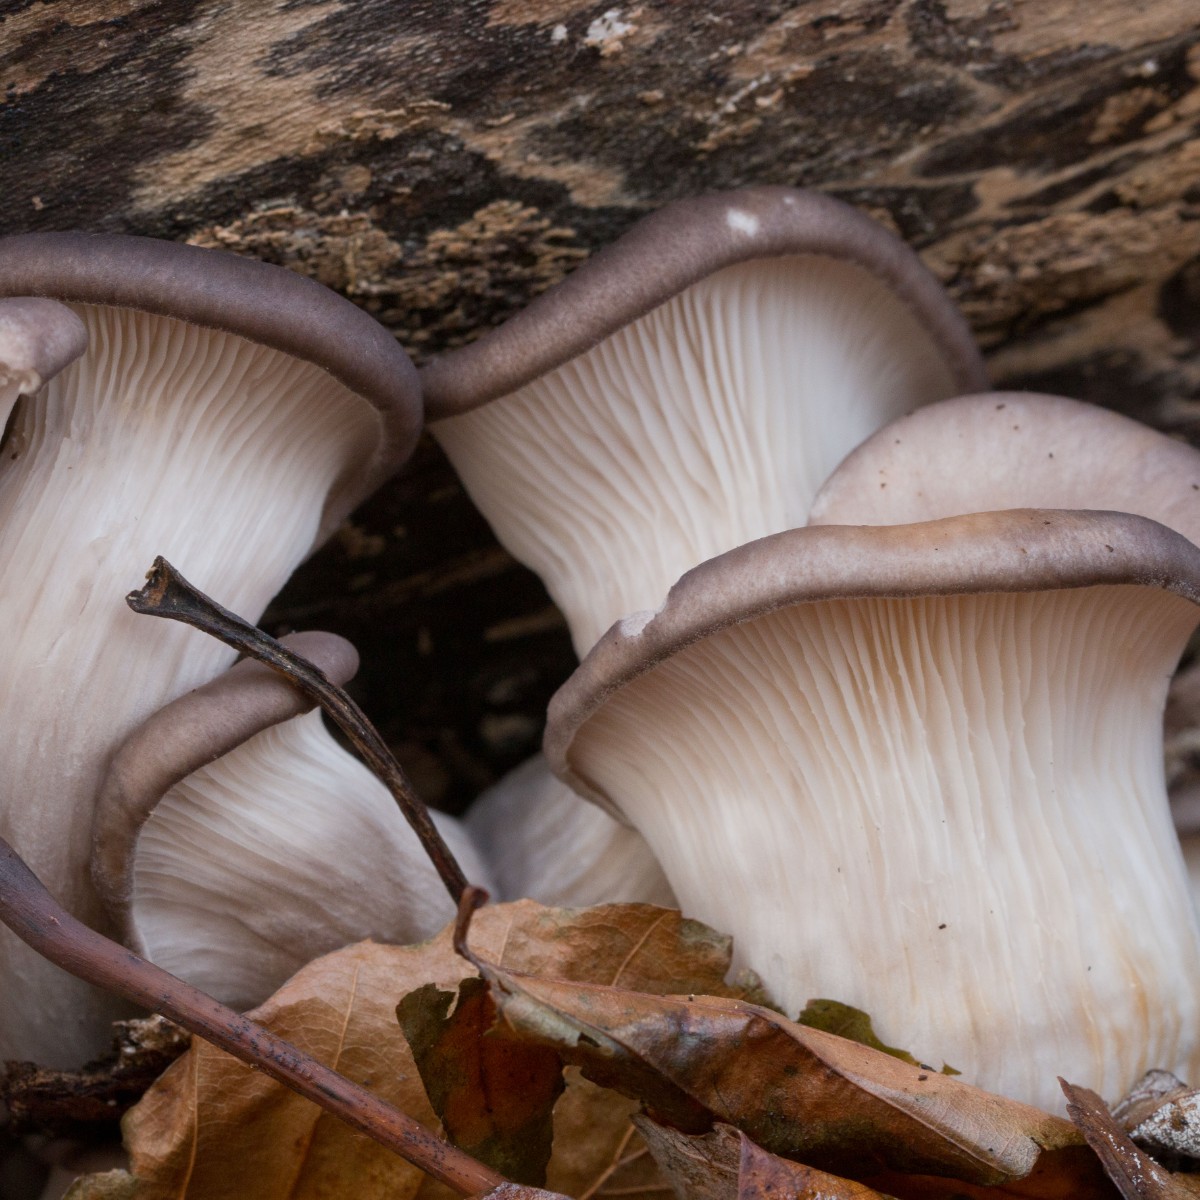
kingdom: Fungi
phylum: Basidiomycota
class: Agaricomycetes
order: Agaricales
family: Pleurotaceae
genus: Pleurotus
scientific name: Pleurotus ostreatus
